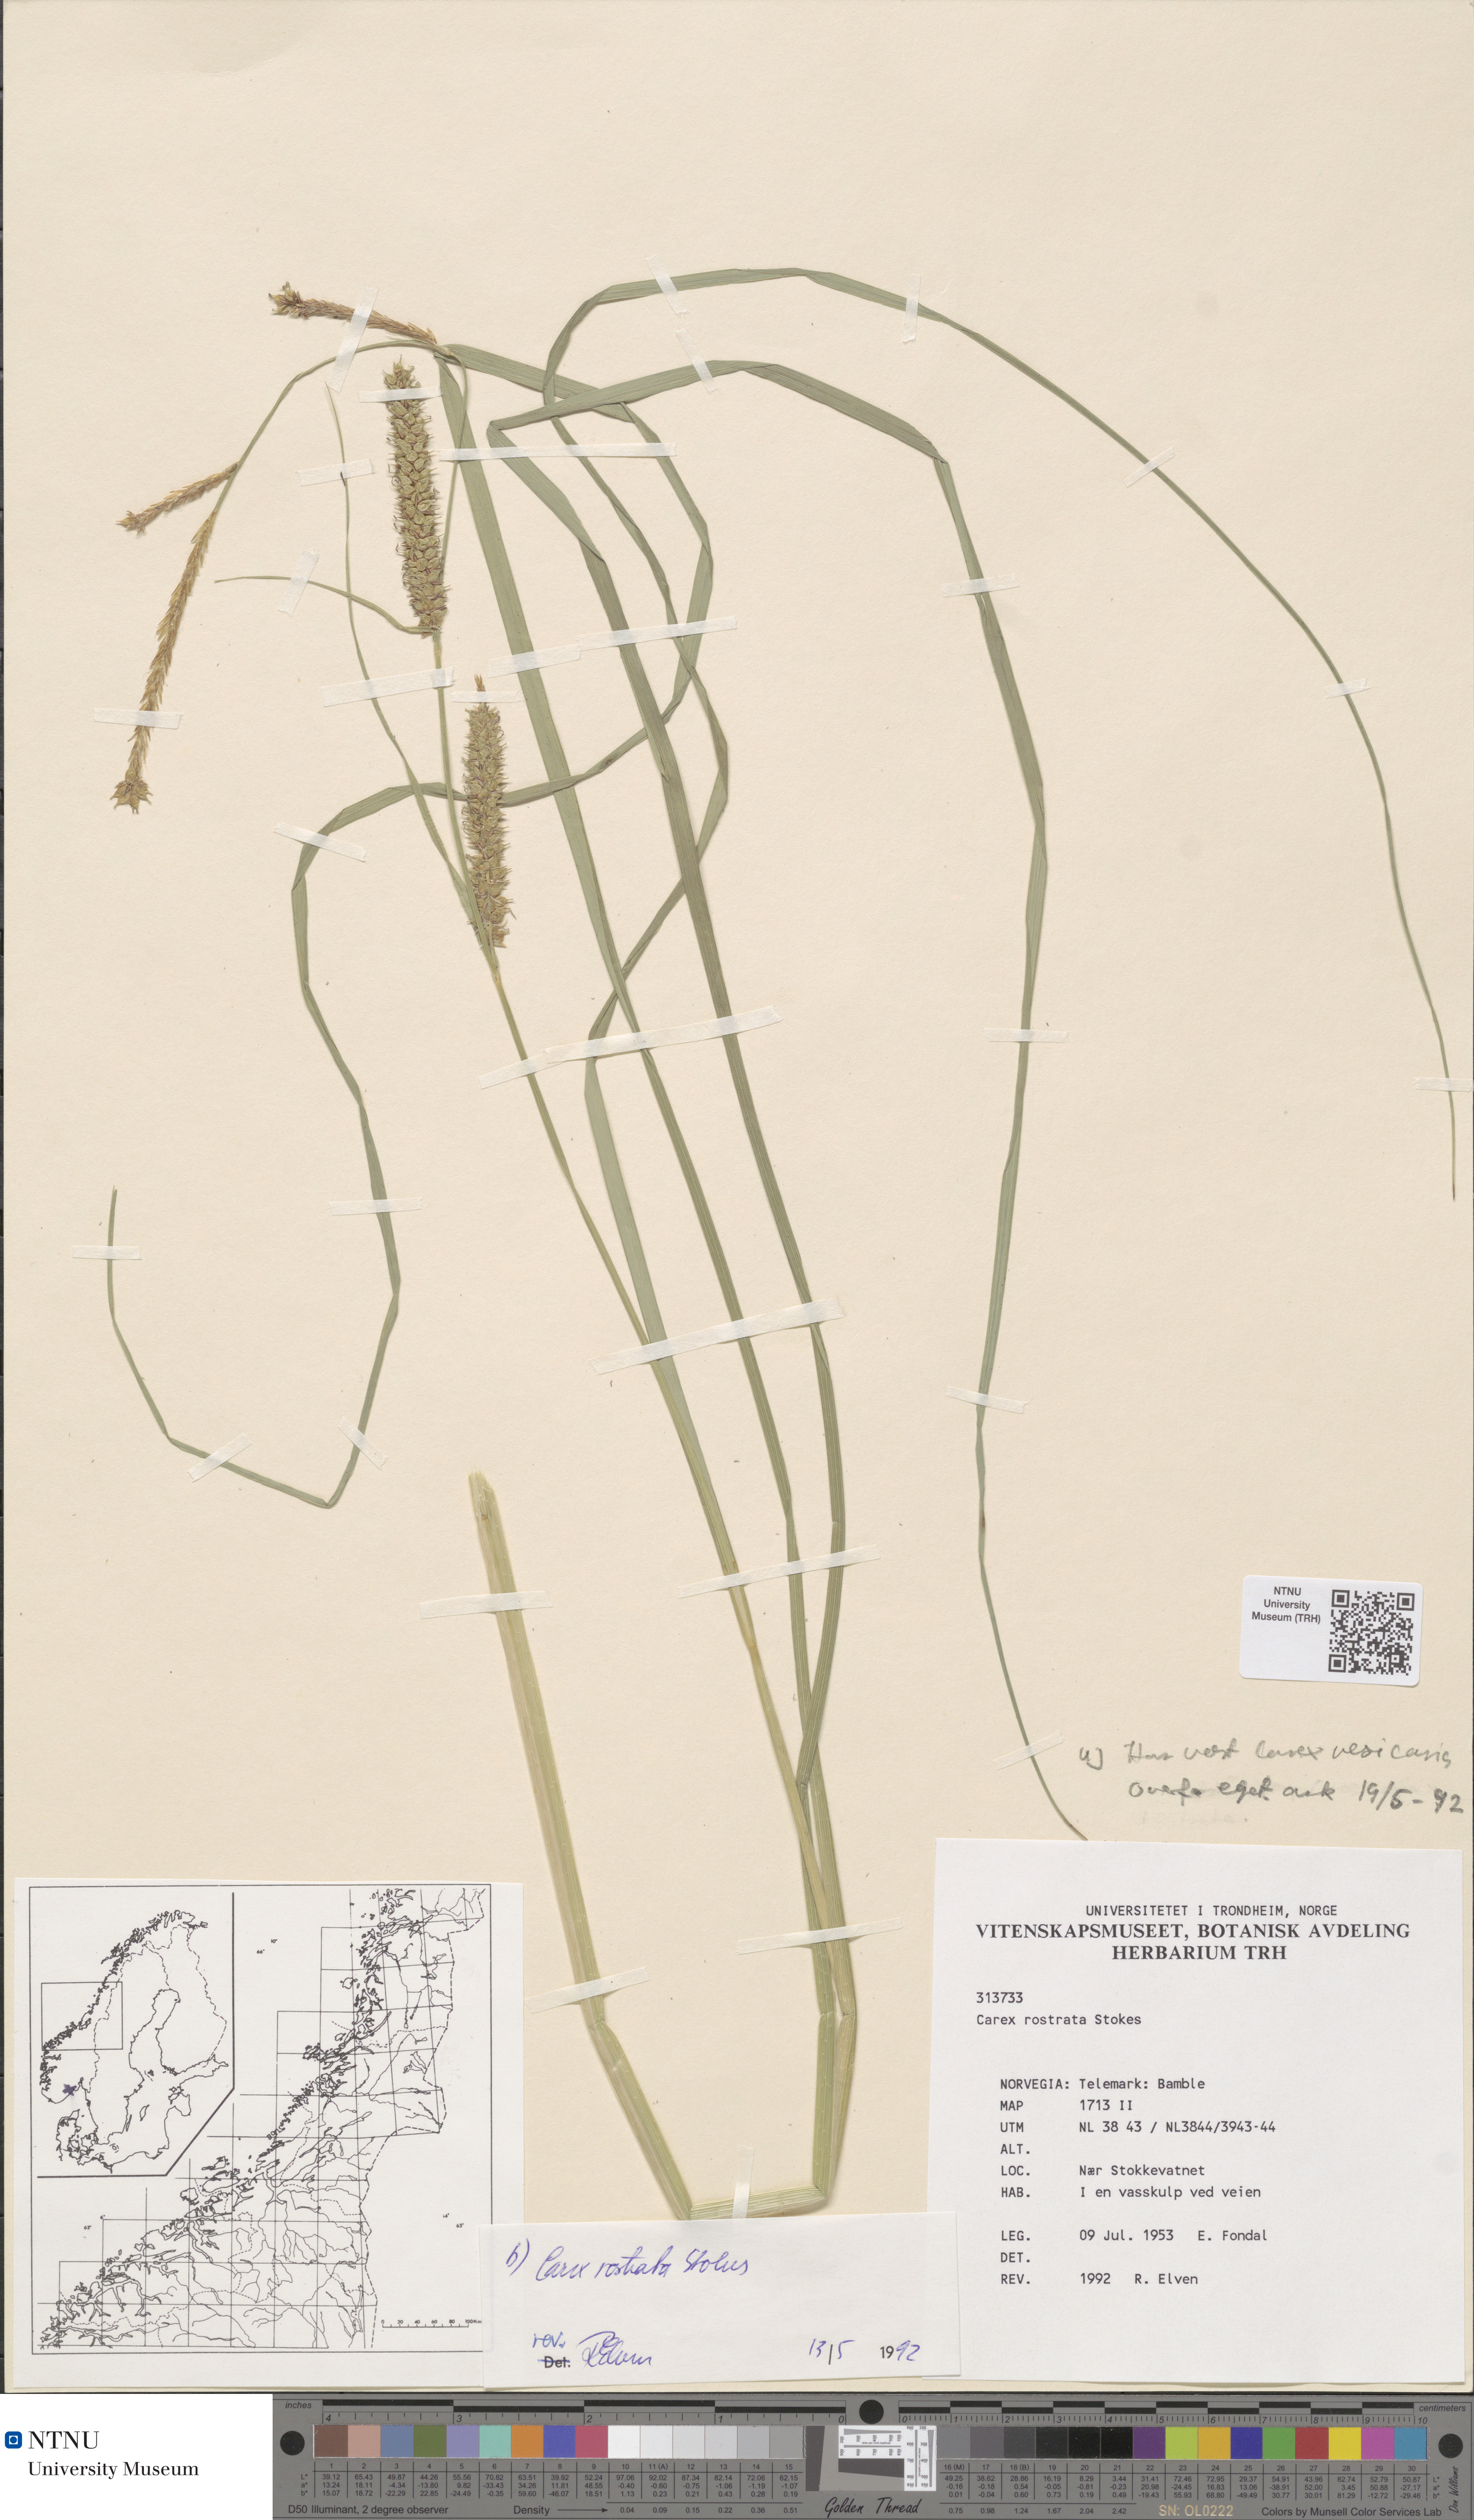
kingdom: Plantae
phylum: Tracheophyta
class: Liliopsida
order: Poales
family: Cyperaceae
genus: Carex
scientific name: Carex rostrata
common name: Bottle sedge
